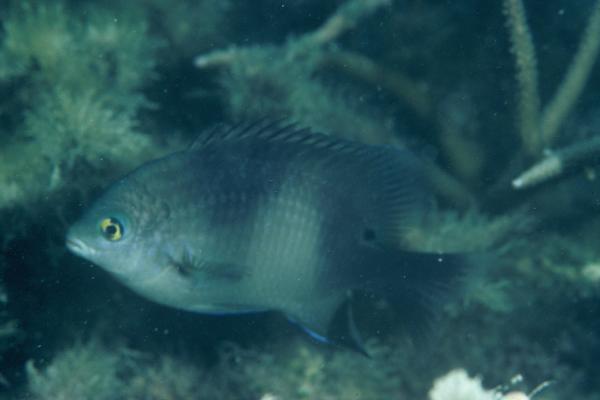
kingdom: Animalia
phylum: Chordata
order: Perciformes
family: Pomacentridae
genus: Stegastes
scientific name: Stegastes nigricans
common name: Dusky gregory
